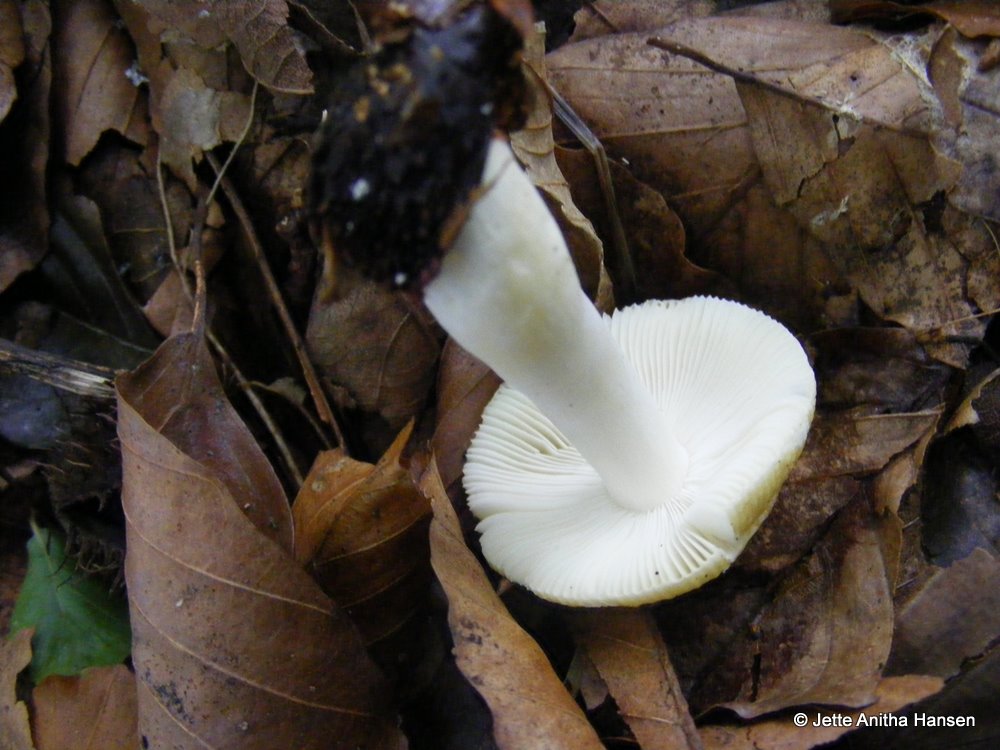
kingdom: Fungi
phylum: Basidiomycota
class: Agaricomycetes
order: Russulales
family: Russulaceae
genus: Russula
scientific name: Russula solaris
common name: sol-skørhat
